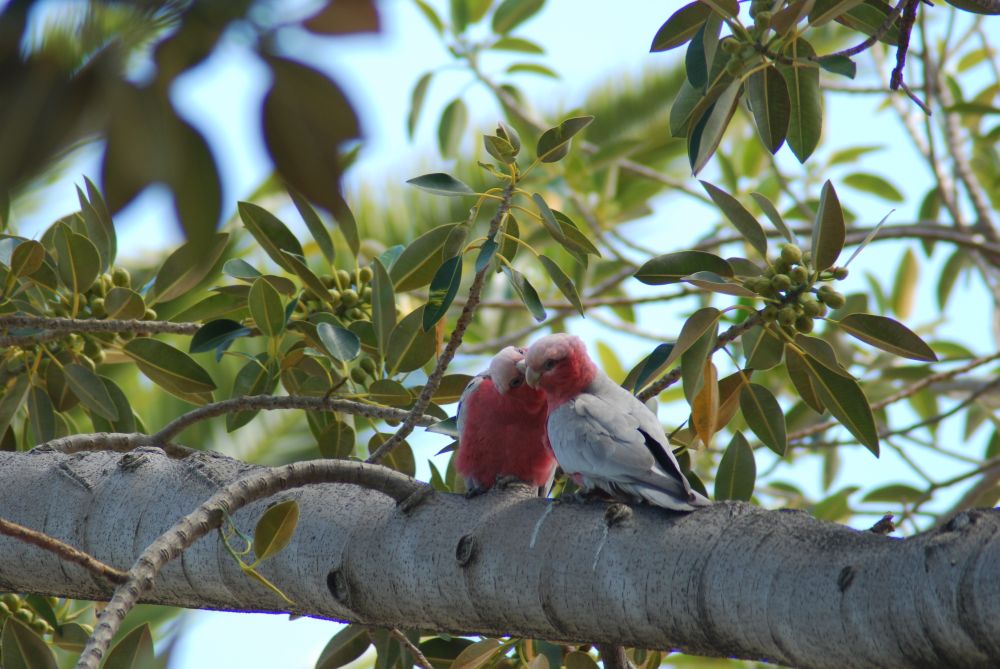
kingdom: Animalia
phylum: Chordata
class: Aves
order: Psittaciformes
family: Psittacidae
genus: Eolophus
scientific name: Eolophus roseicapilla
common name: Galah
